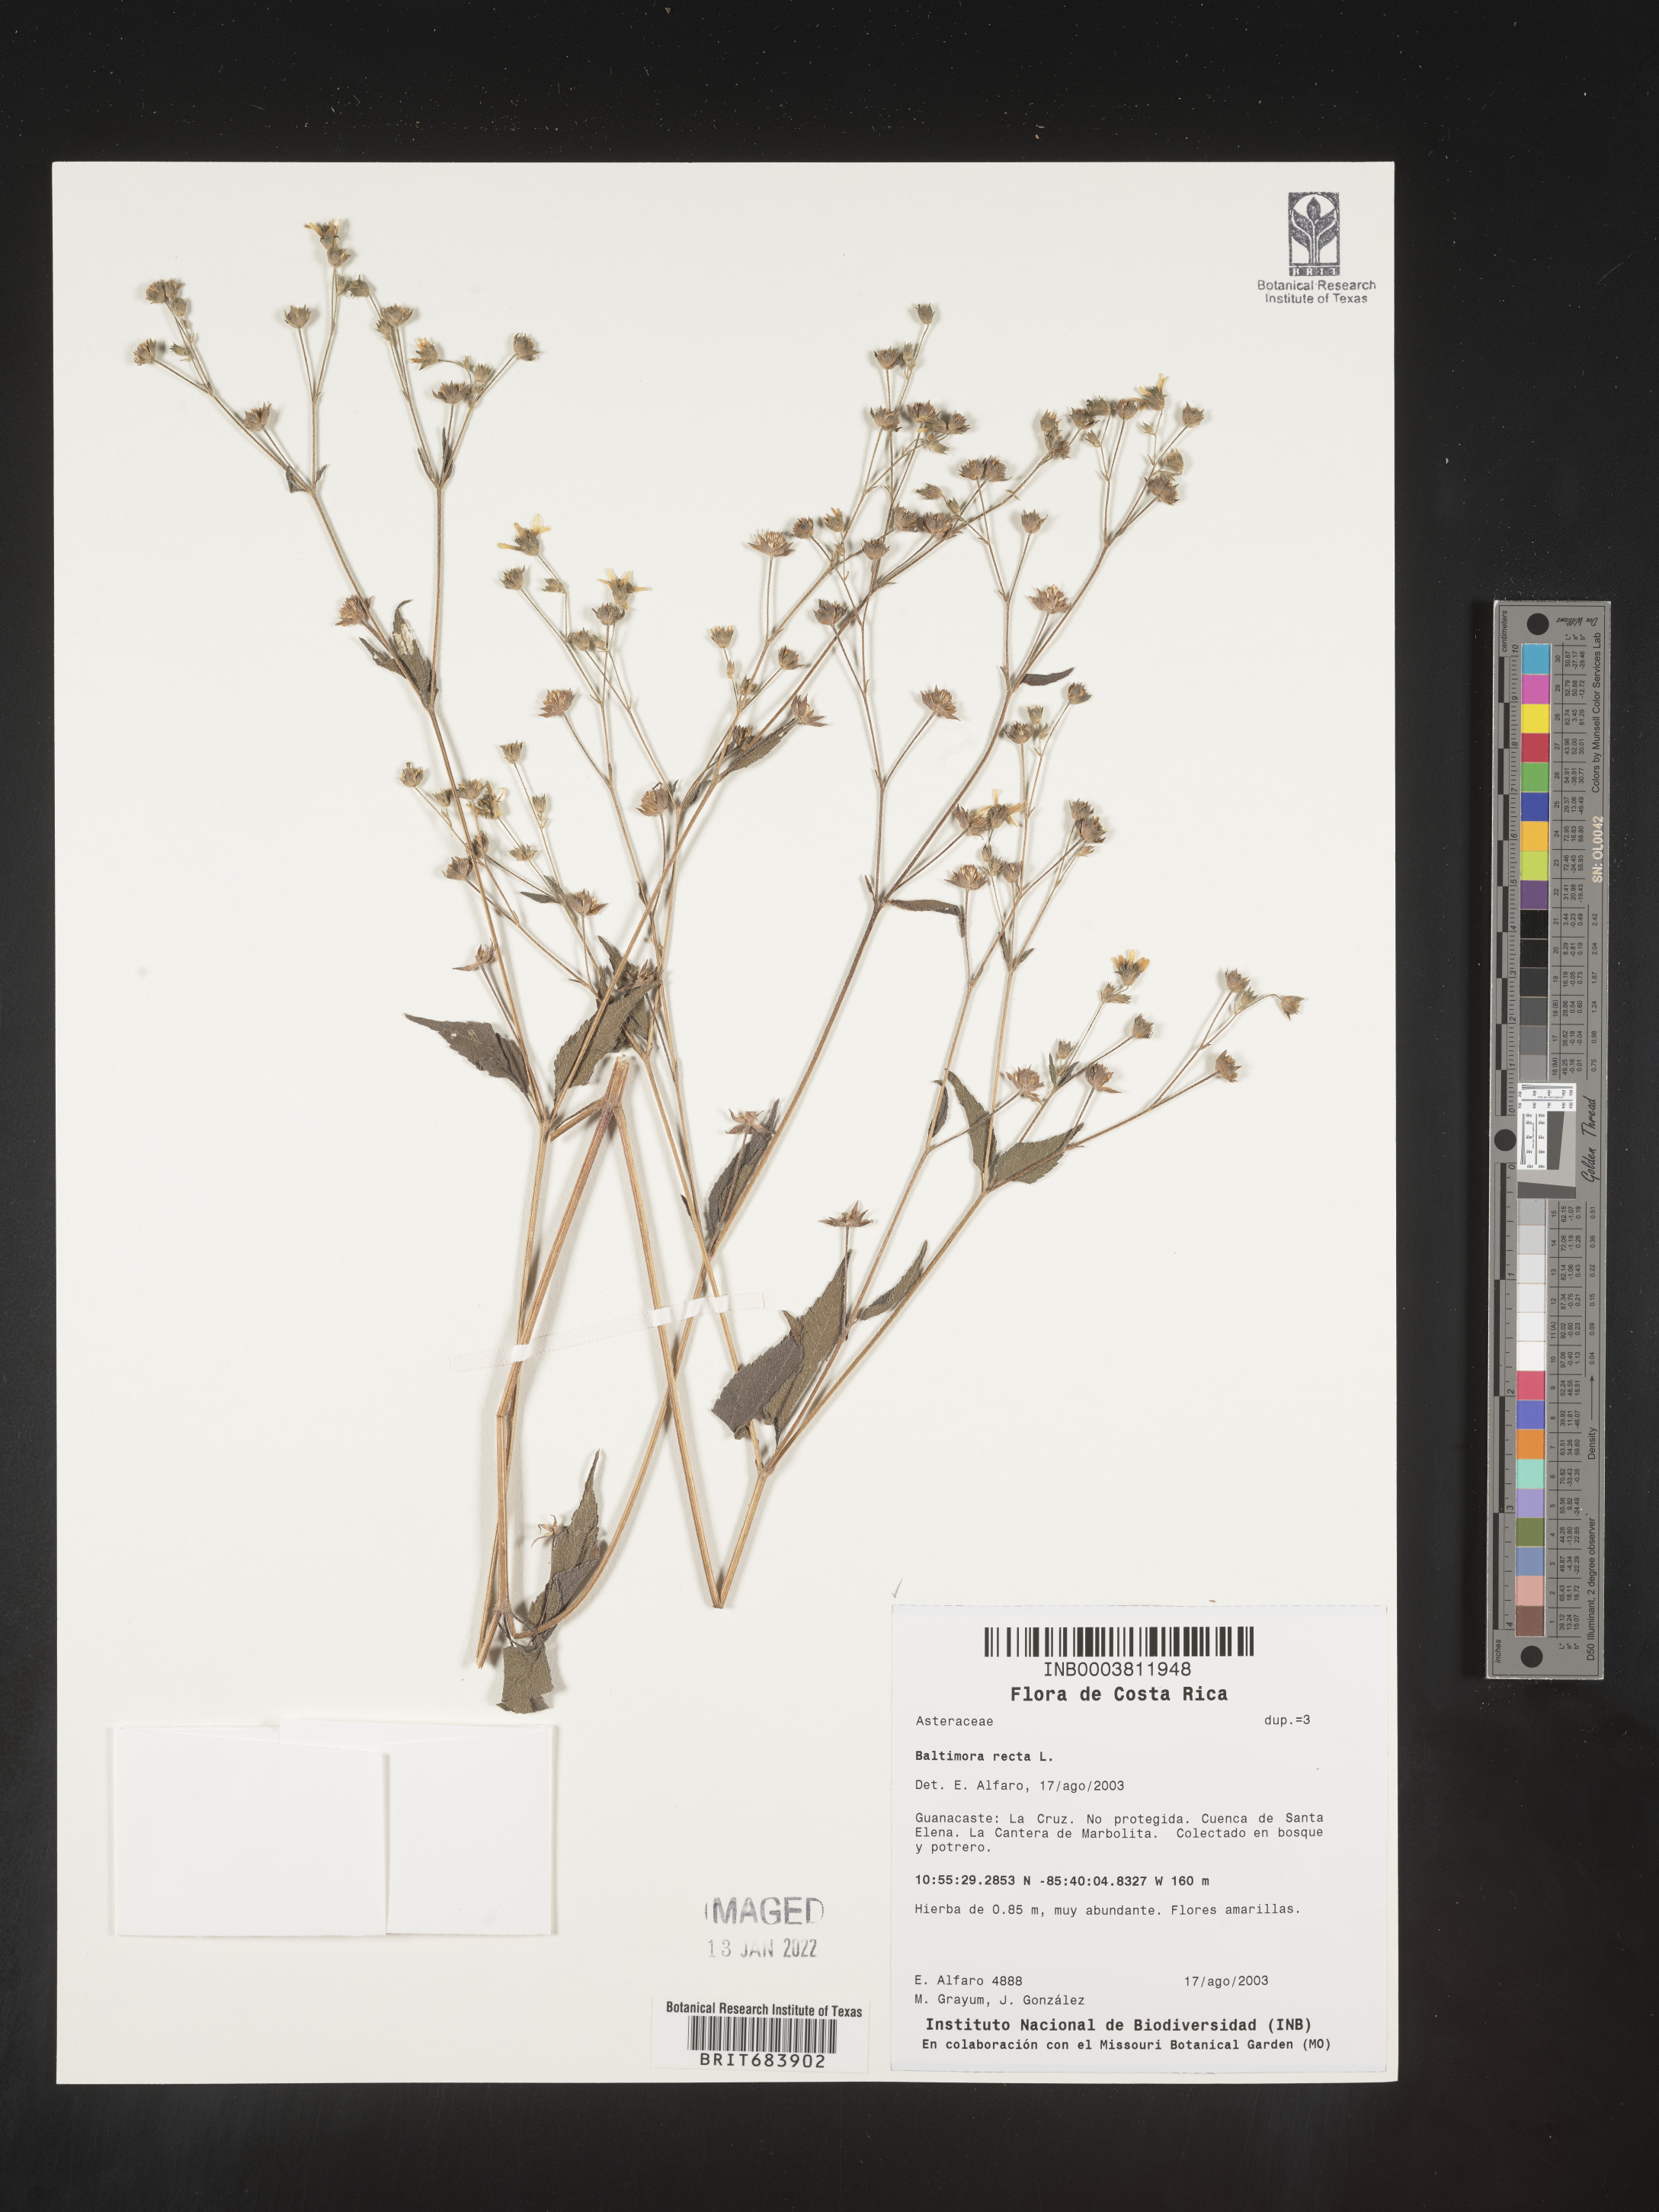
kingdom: Plantae
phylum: Tracheophyta
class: Magnoliopsida
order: Asterales
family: Asteraceae
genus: Baltimora
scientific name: Baltimora
